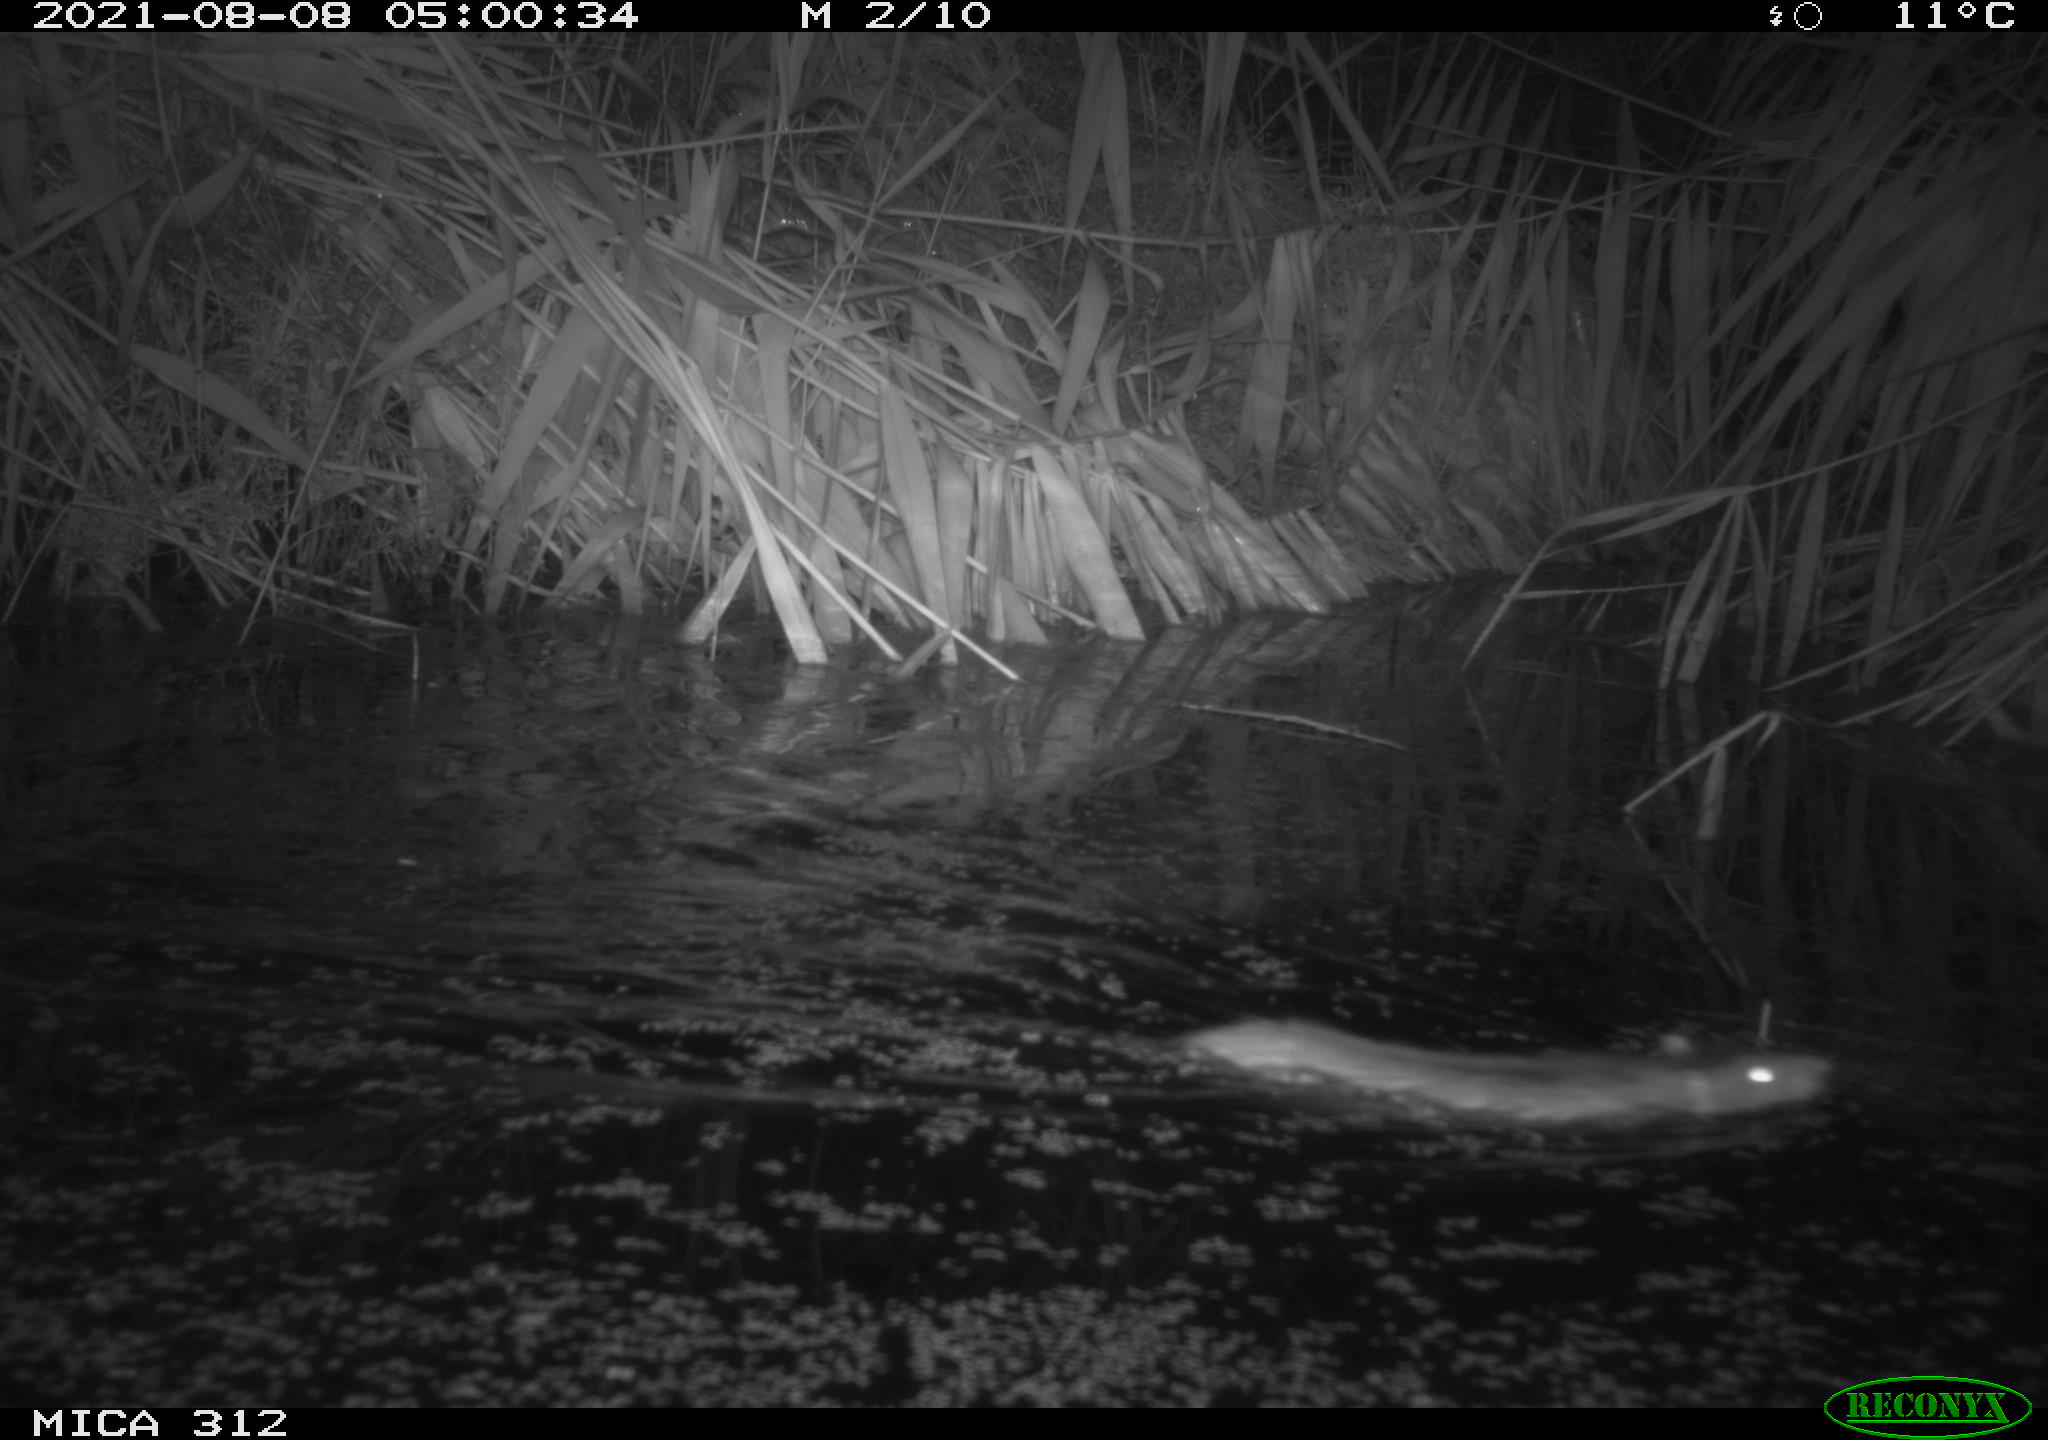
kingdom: Animalia
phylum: Chordata
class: Mammalia
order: Rodentia
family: Muridae
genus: Rattus
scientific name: Rattus norvegicus
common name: Brown rat
